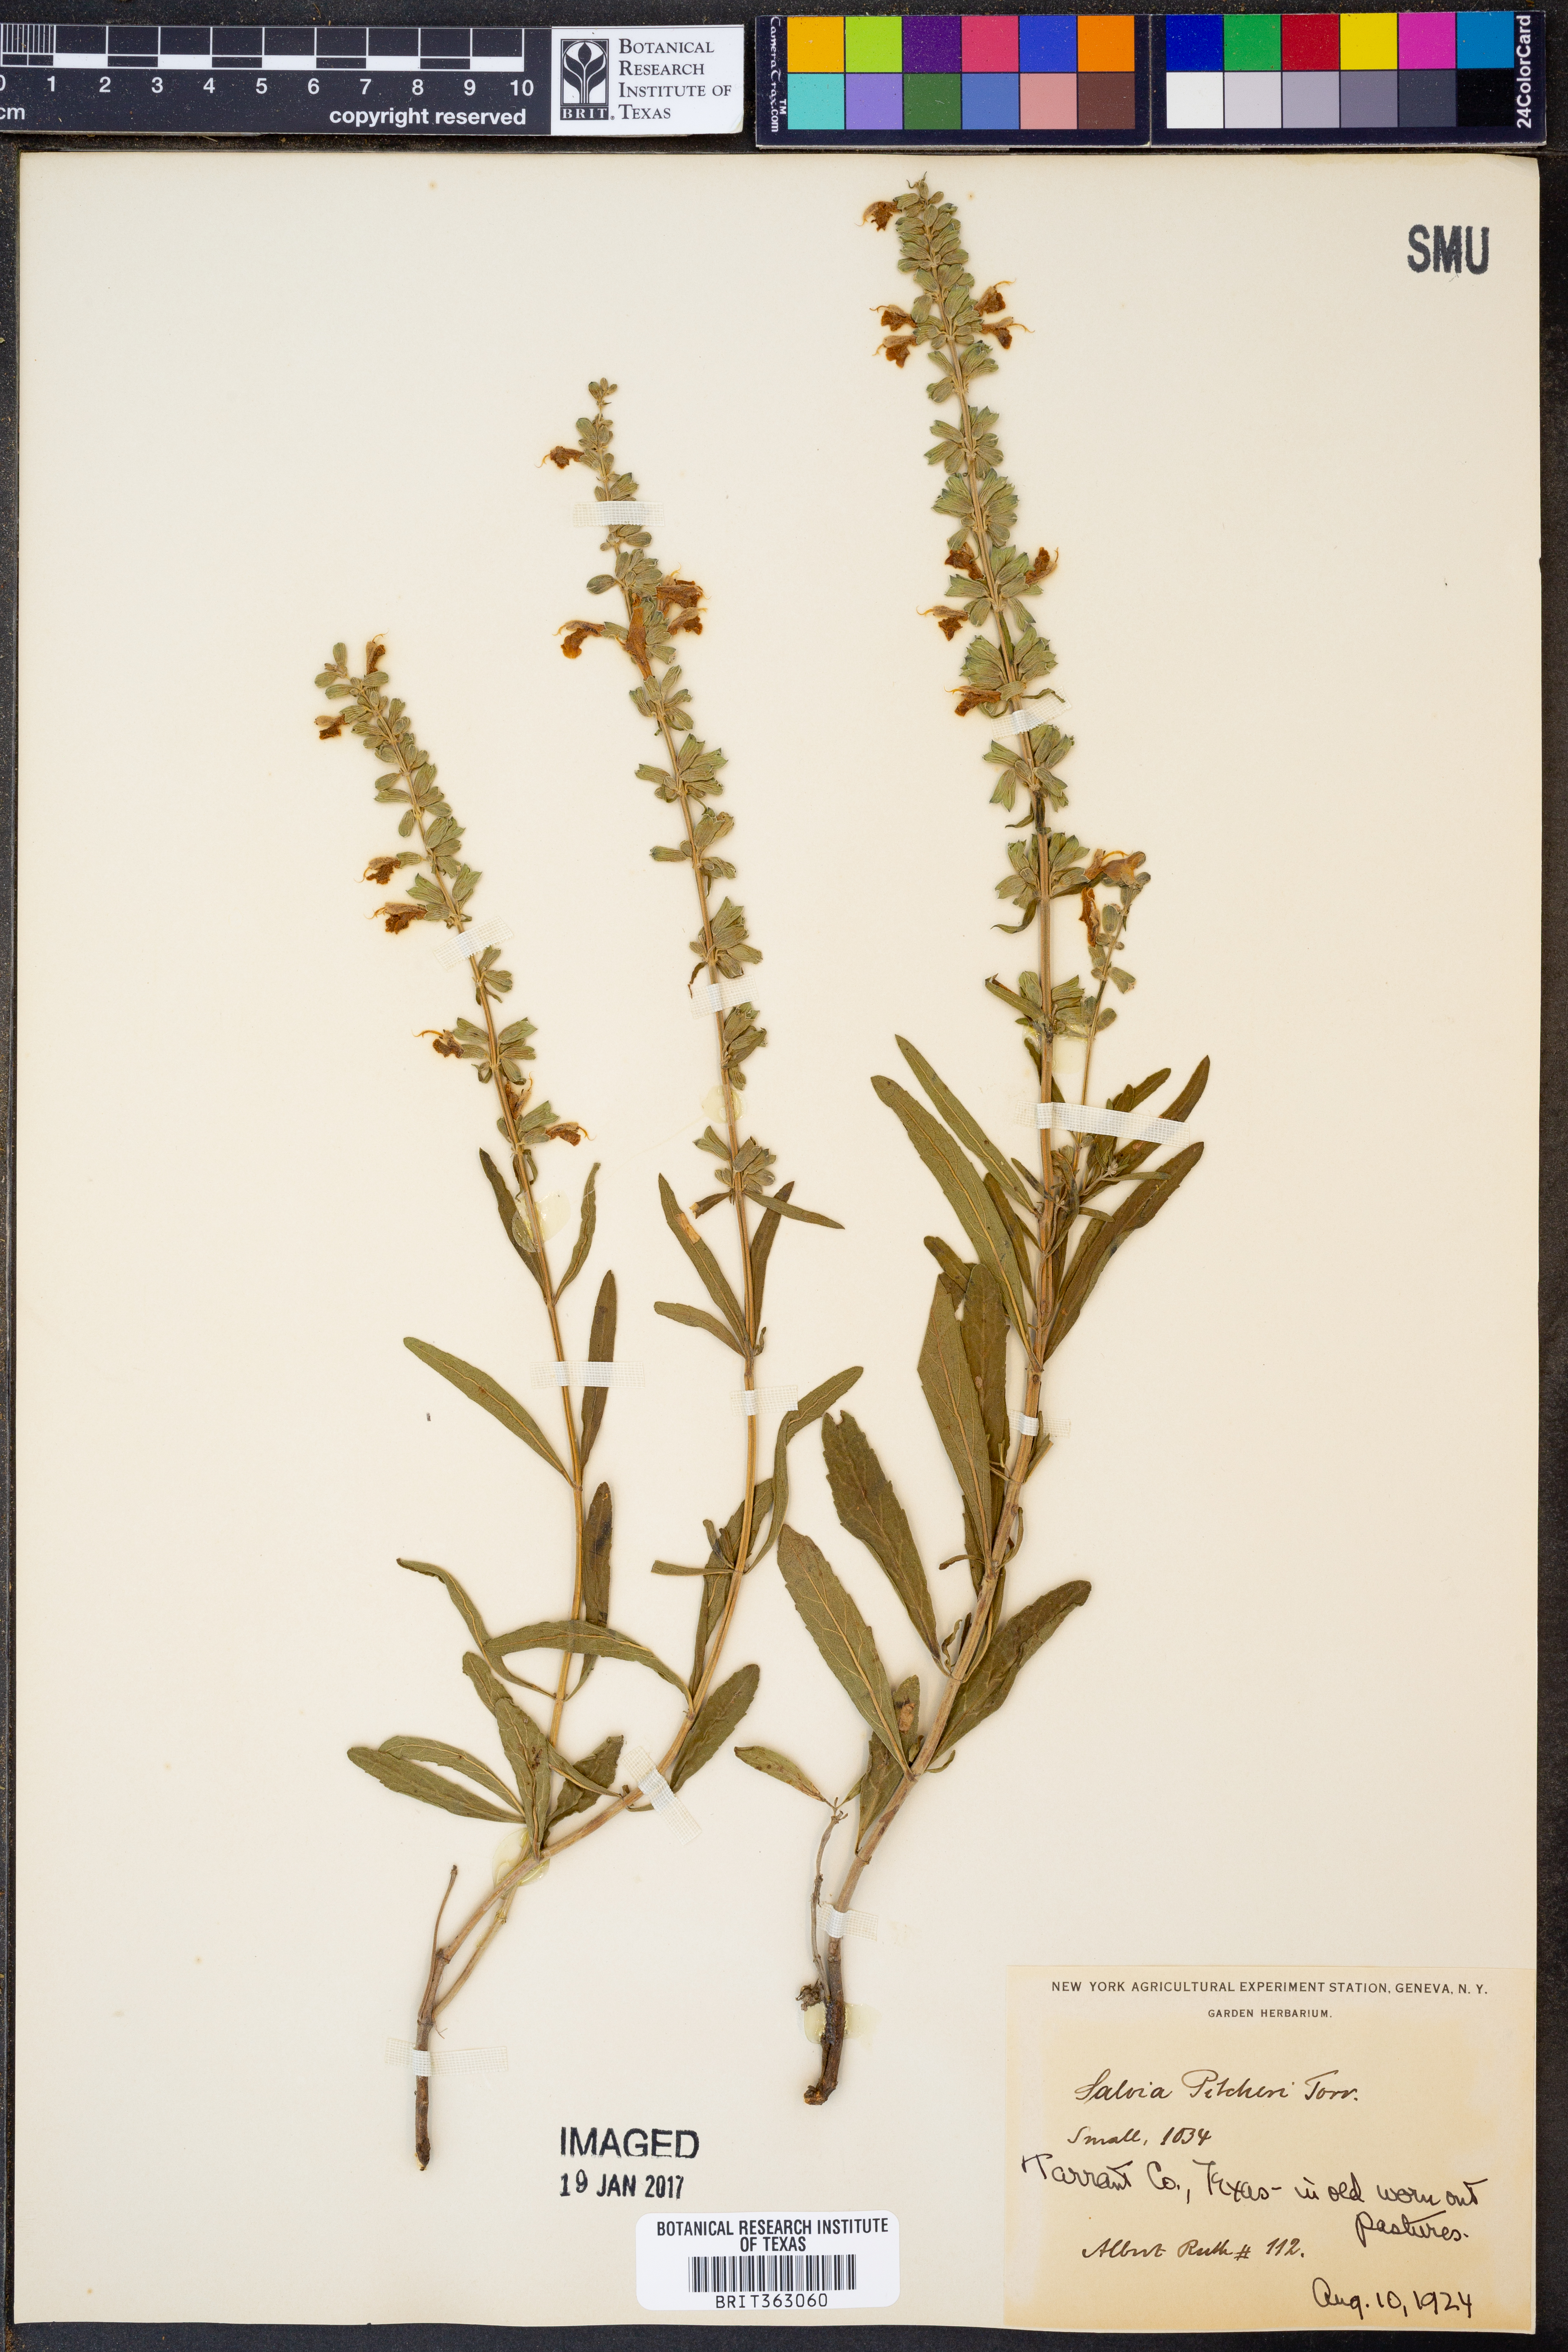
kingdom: Plantae
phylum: Tracheophyta
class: Magnoliopsida
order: Lamiales
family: Lamiaceae
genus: Salvia
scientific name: Salvia azurea
